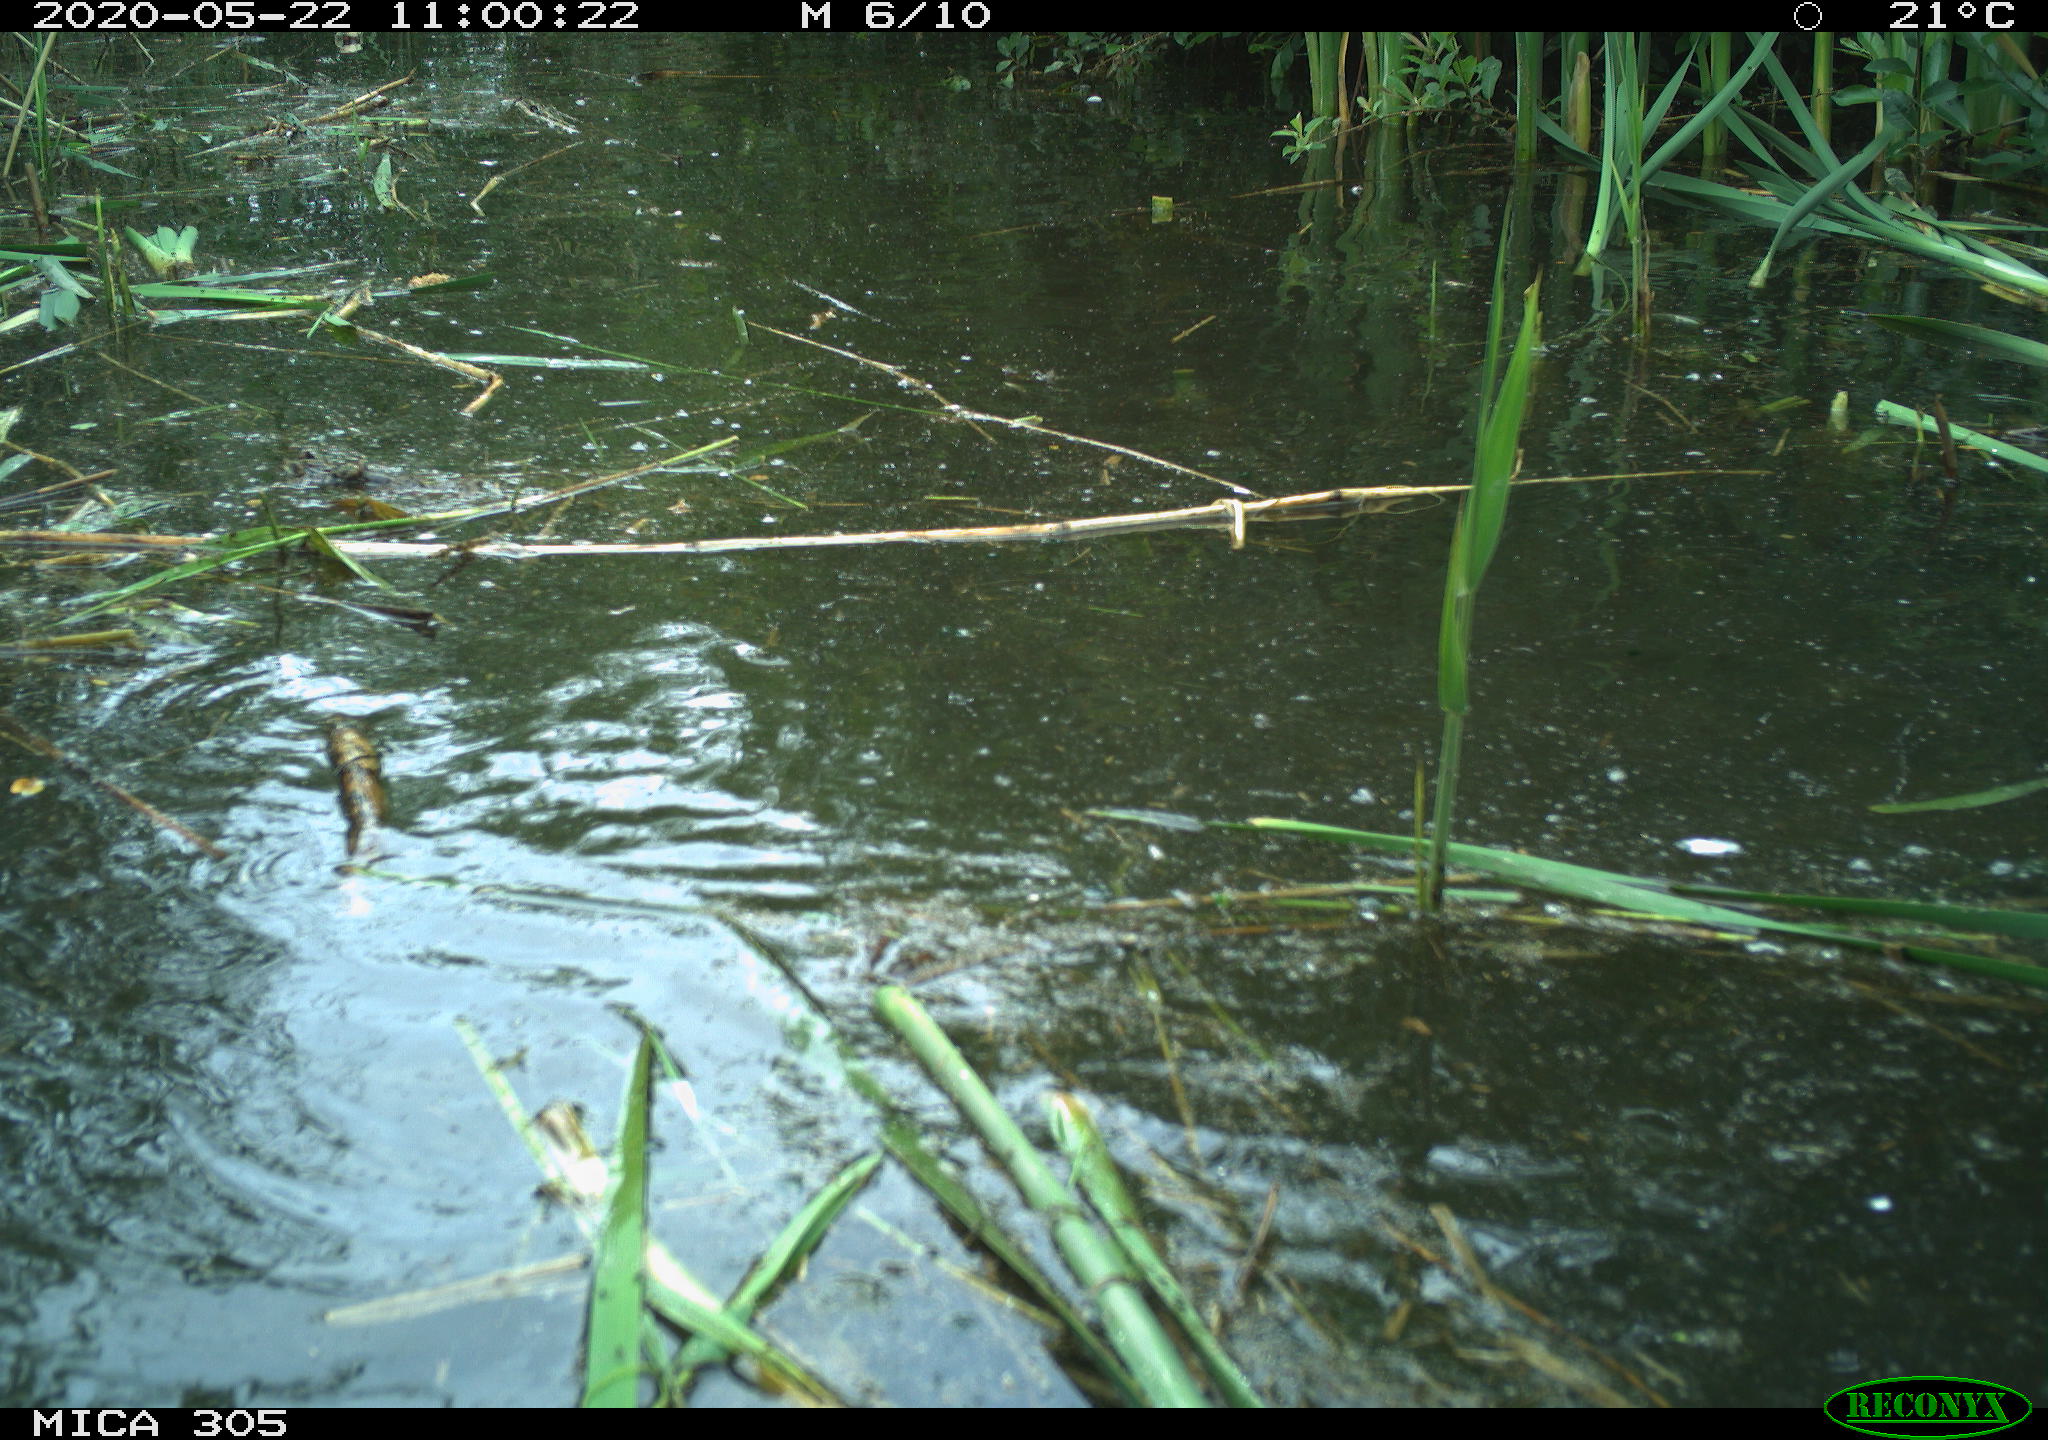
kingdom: Animalia
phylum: Chordata
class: Aves
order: Anseriformes
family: Anatidae
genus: Anser
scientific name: Anser anser
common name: Greylag goose
